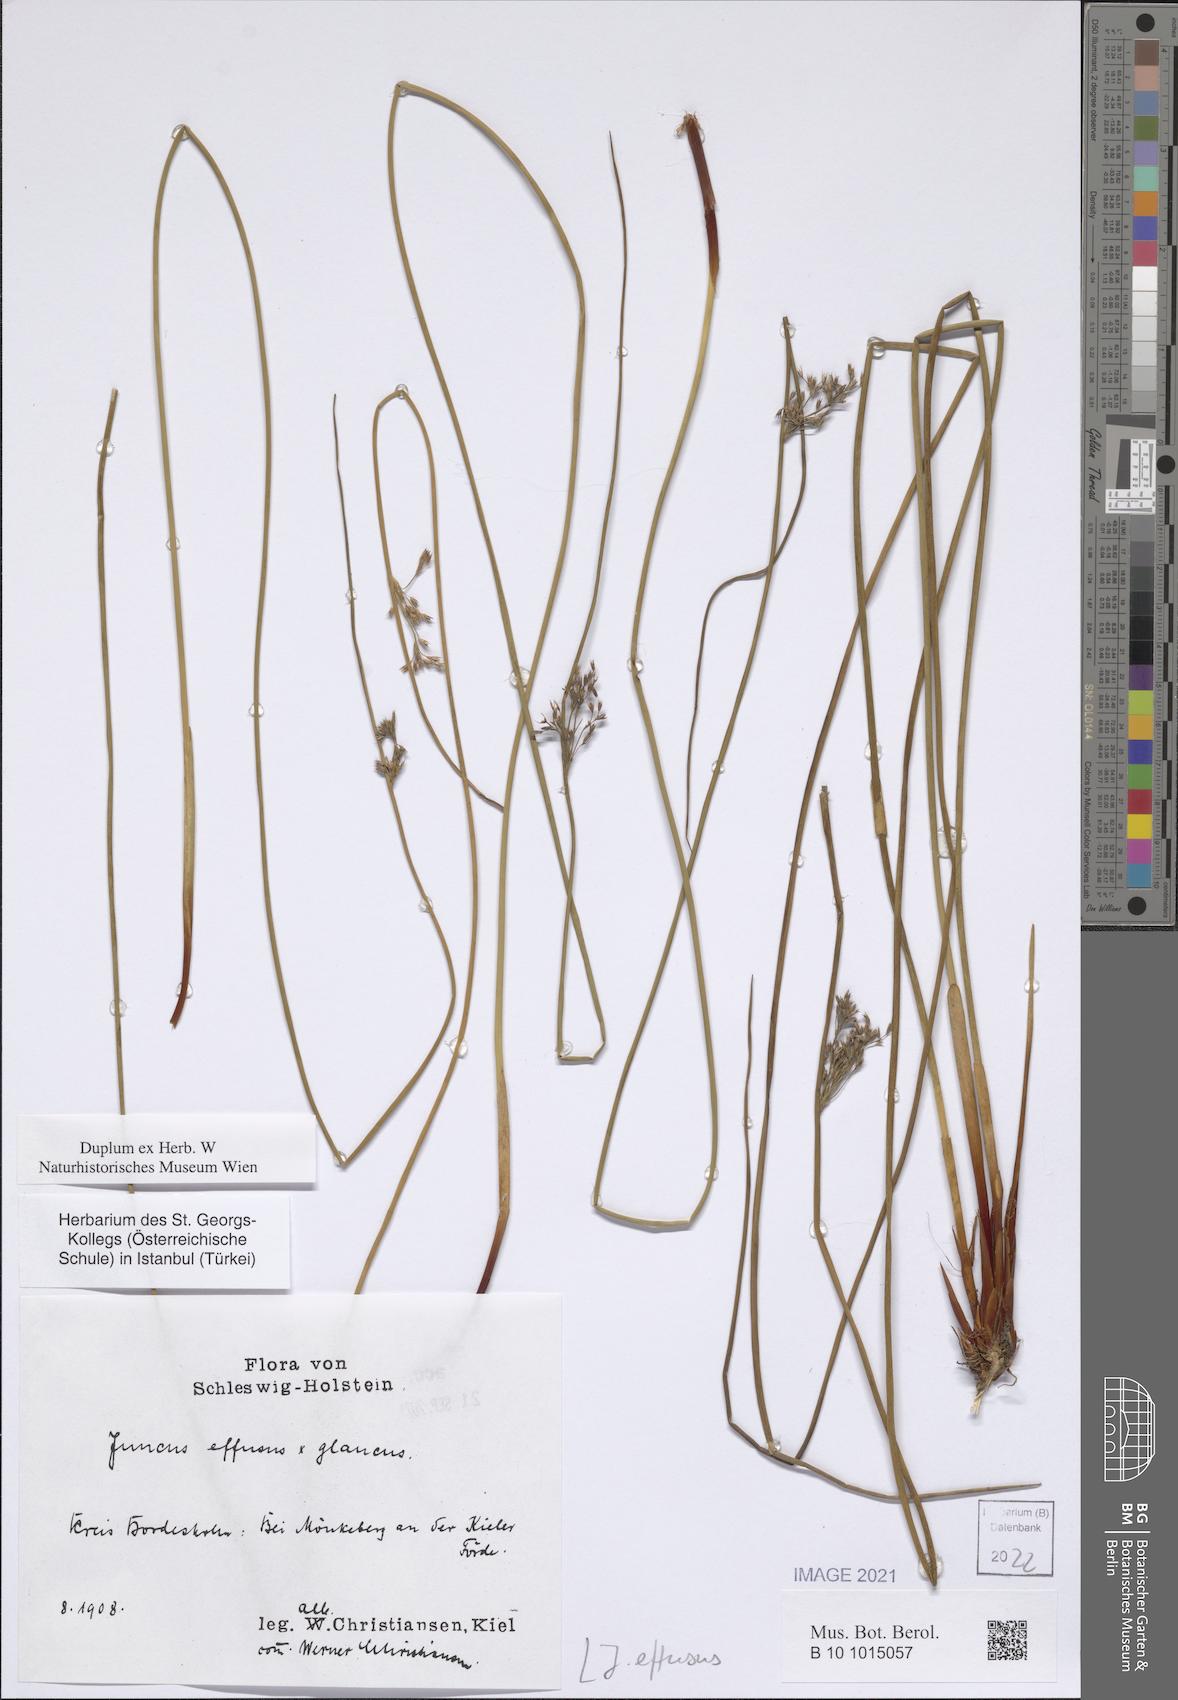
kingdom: Plantae
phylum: Tracheophyta
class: Liliopsida
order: Poales
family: Juncaceae
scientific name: Juncaceae
